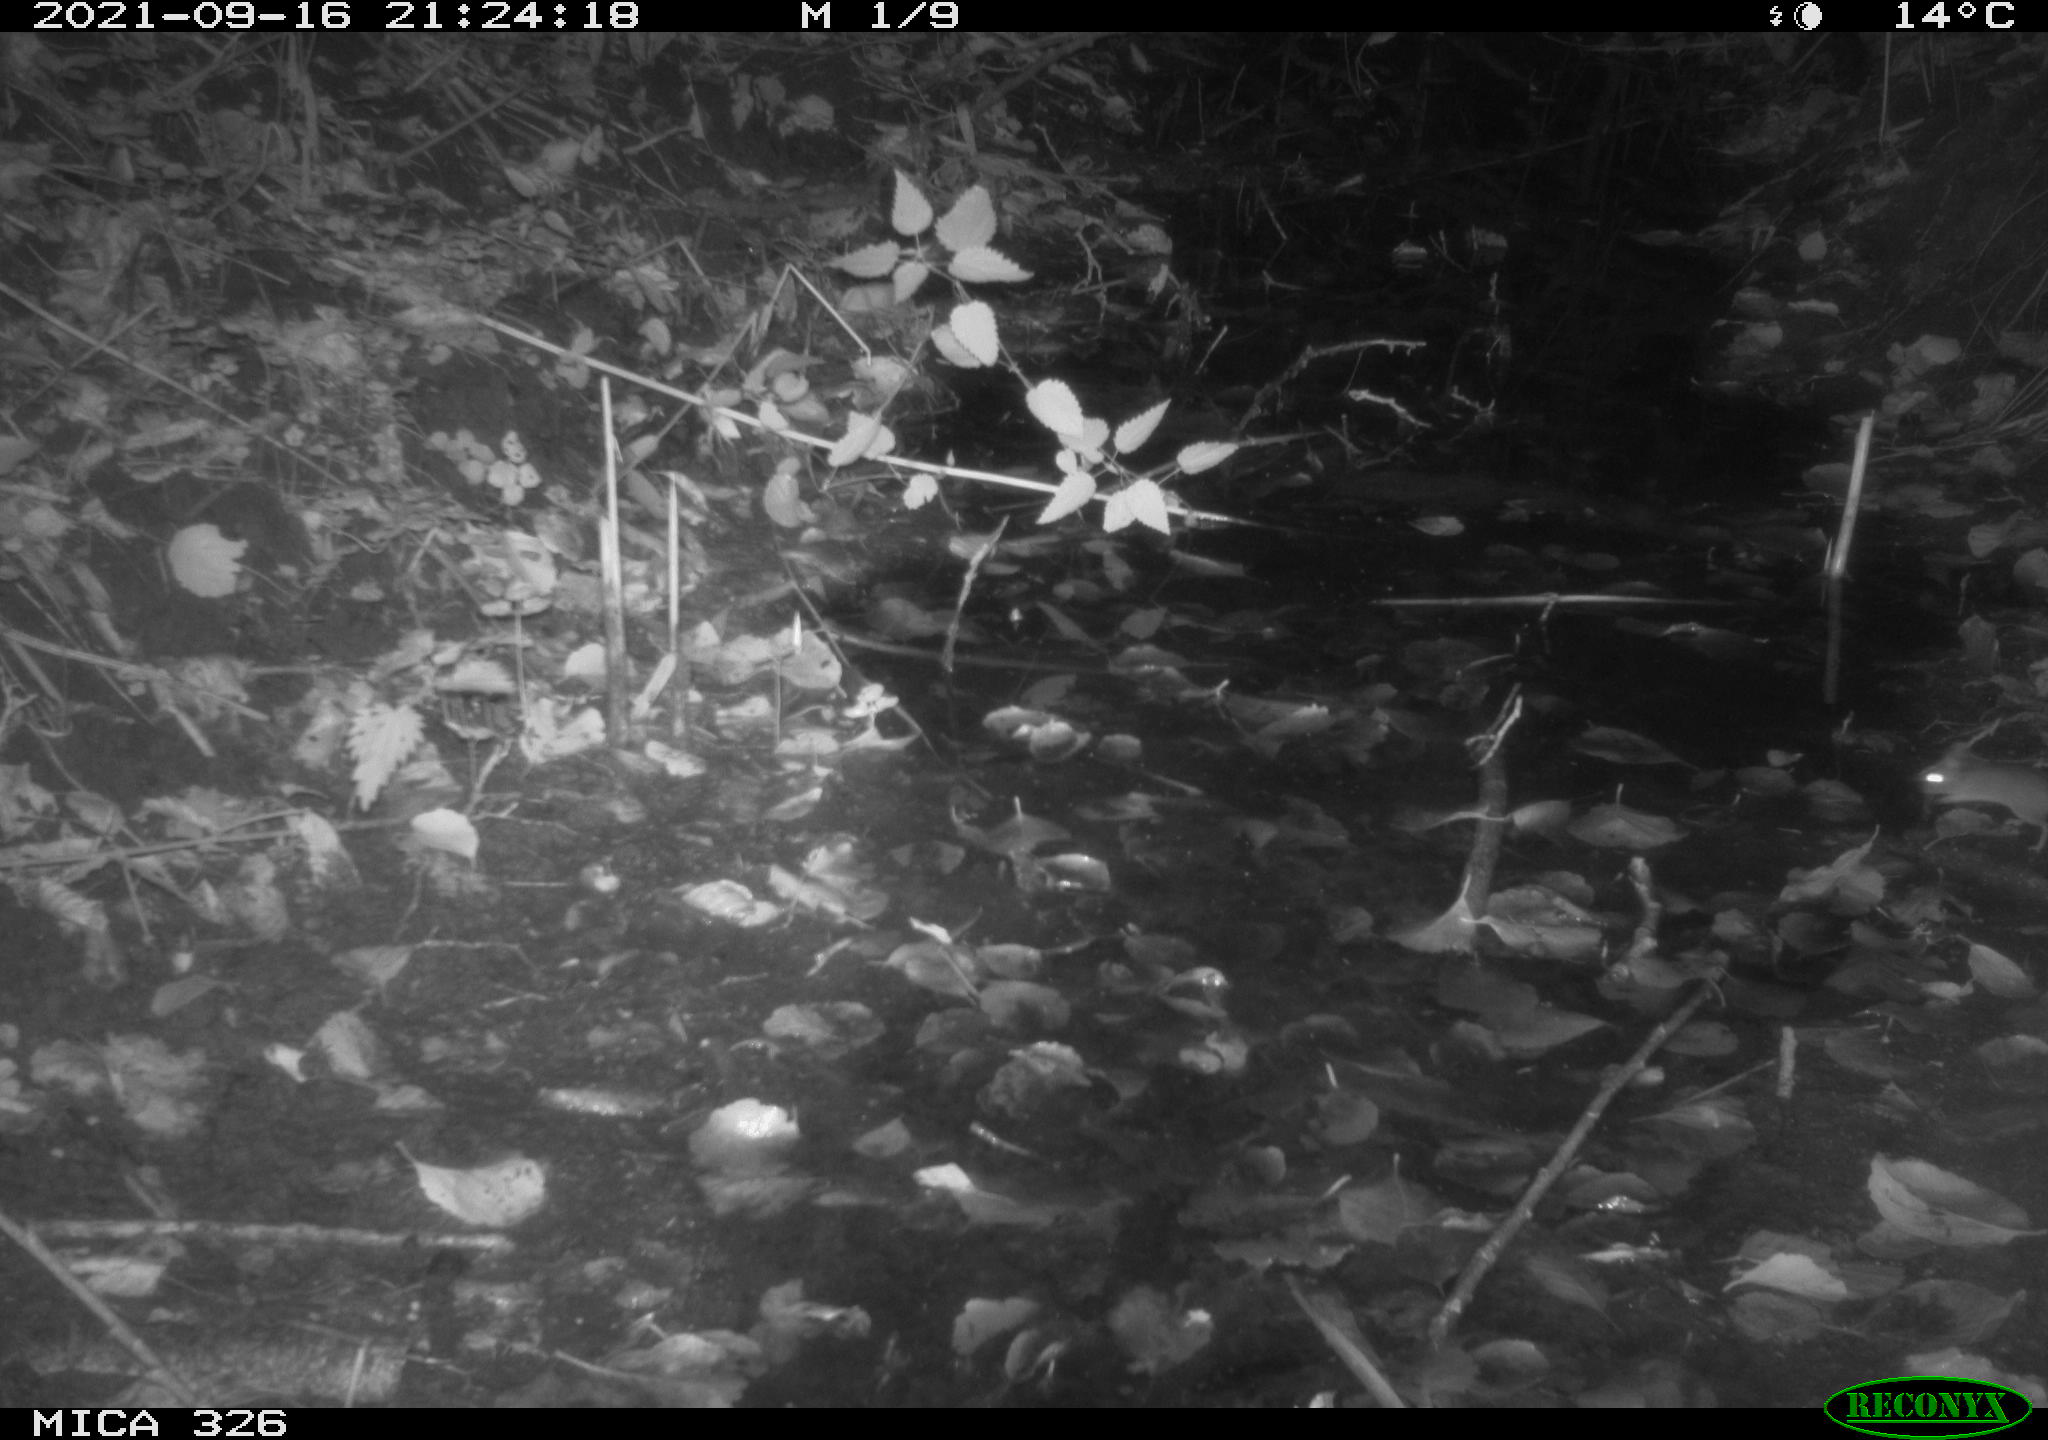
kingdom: Animalia
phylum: Chordata
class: Mammalia
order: Rodentia
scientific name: Rodentia
